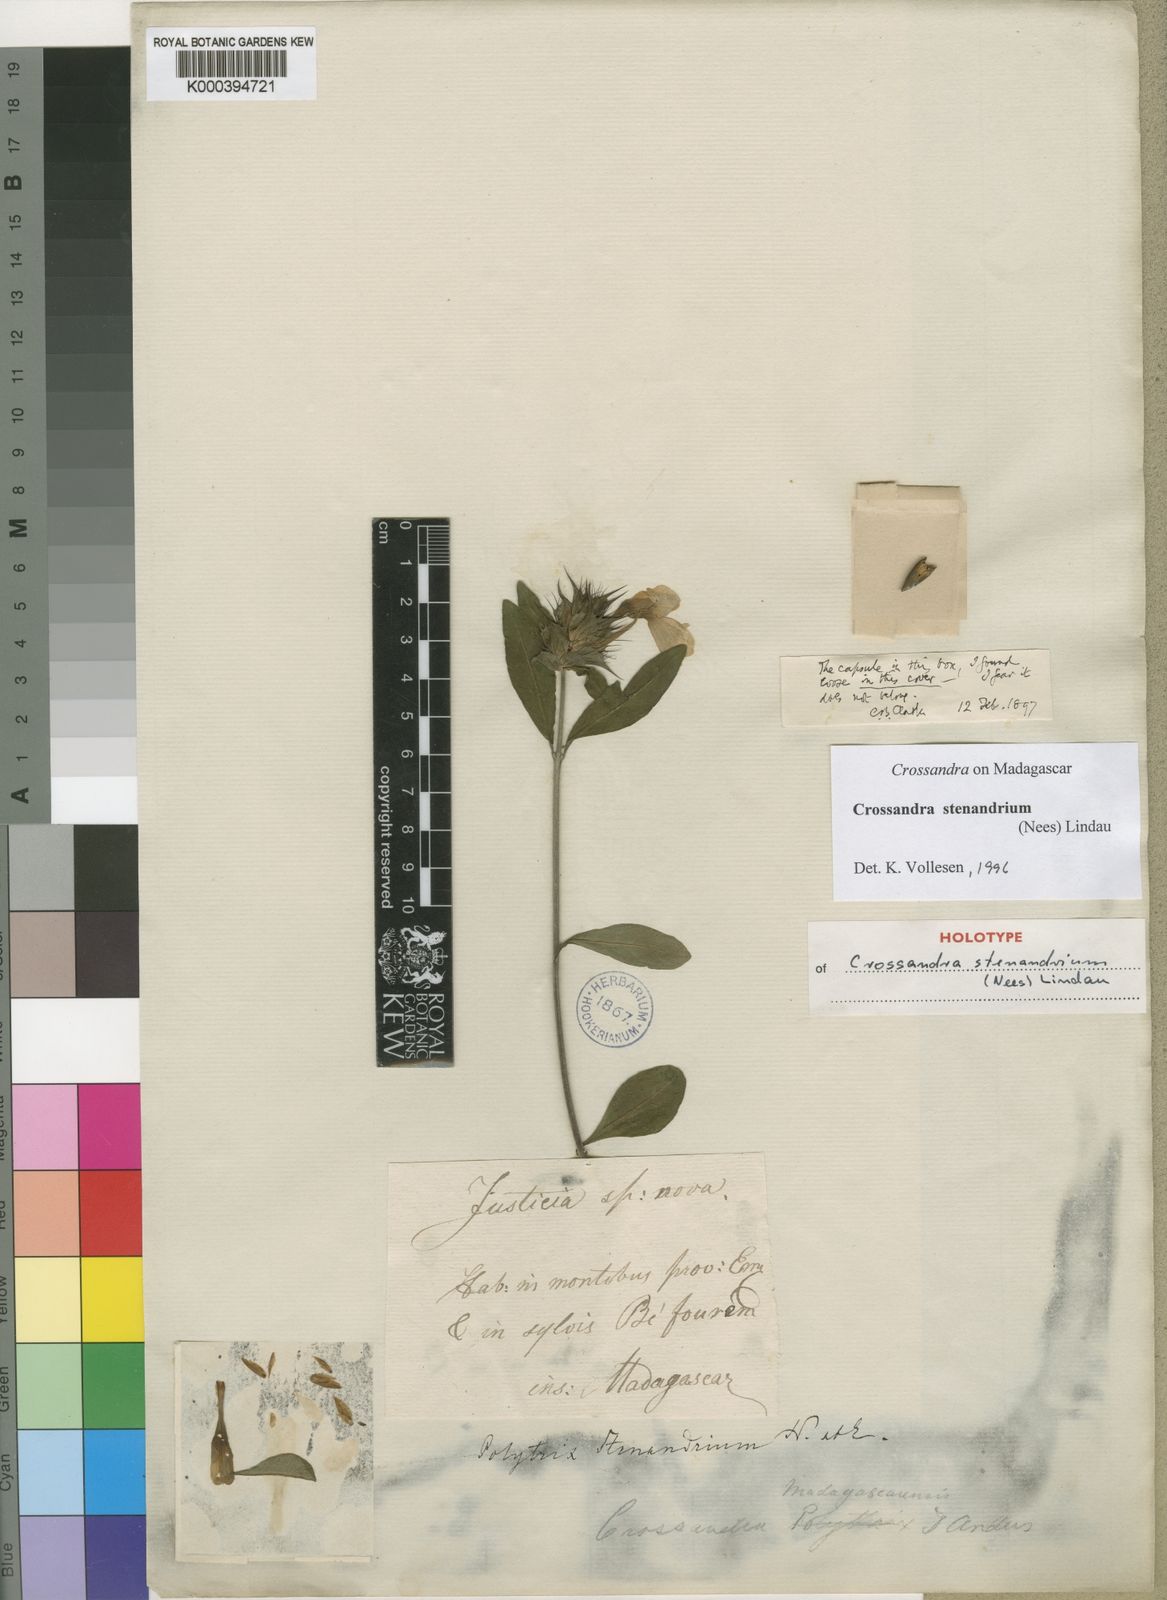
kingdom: Plantae
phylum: Tracheophyta
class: Magnoliopsida
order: Lamiales
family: Acanthaceae
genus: Crossandra
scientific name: Crossandra stenandrium
